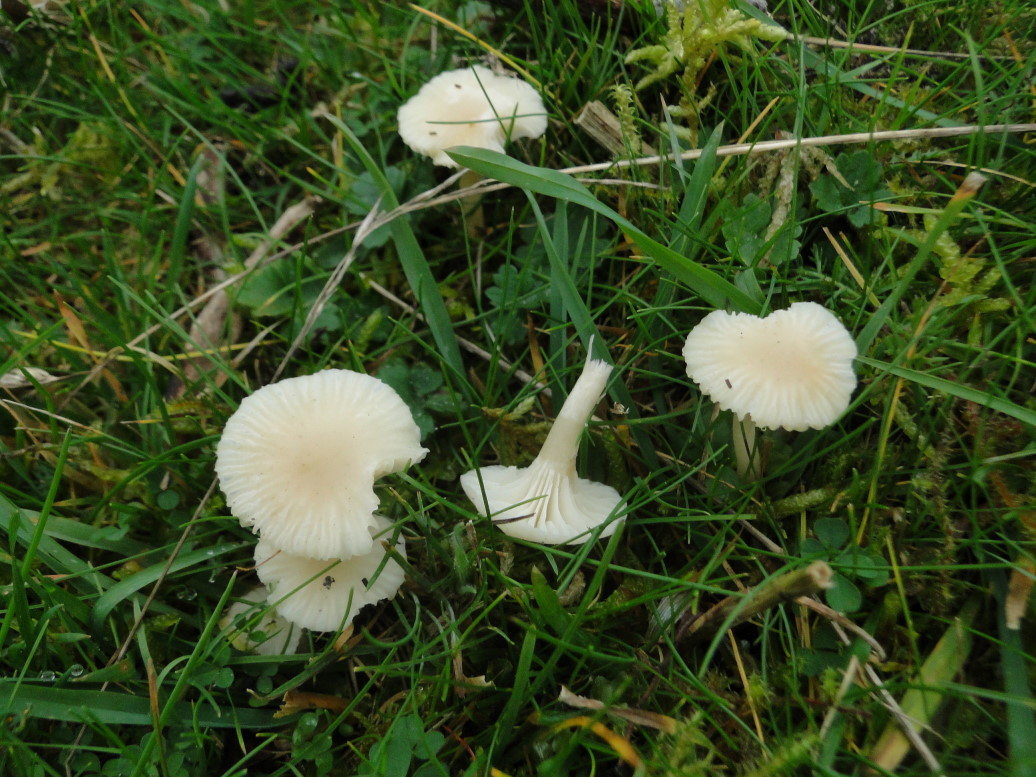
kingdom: Fungi
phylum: Basidiomycota
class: Agaricomycetes
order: Agaricales
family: Hygrophoraceae
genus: Cuphophyllus
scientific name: Cuphophyllus virgineus
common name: snehvid vokshat
